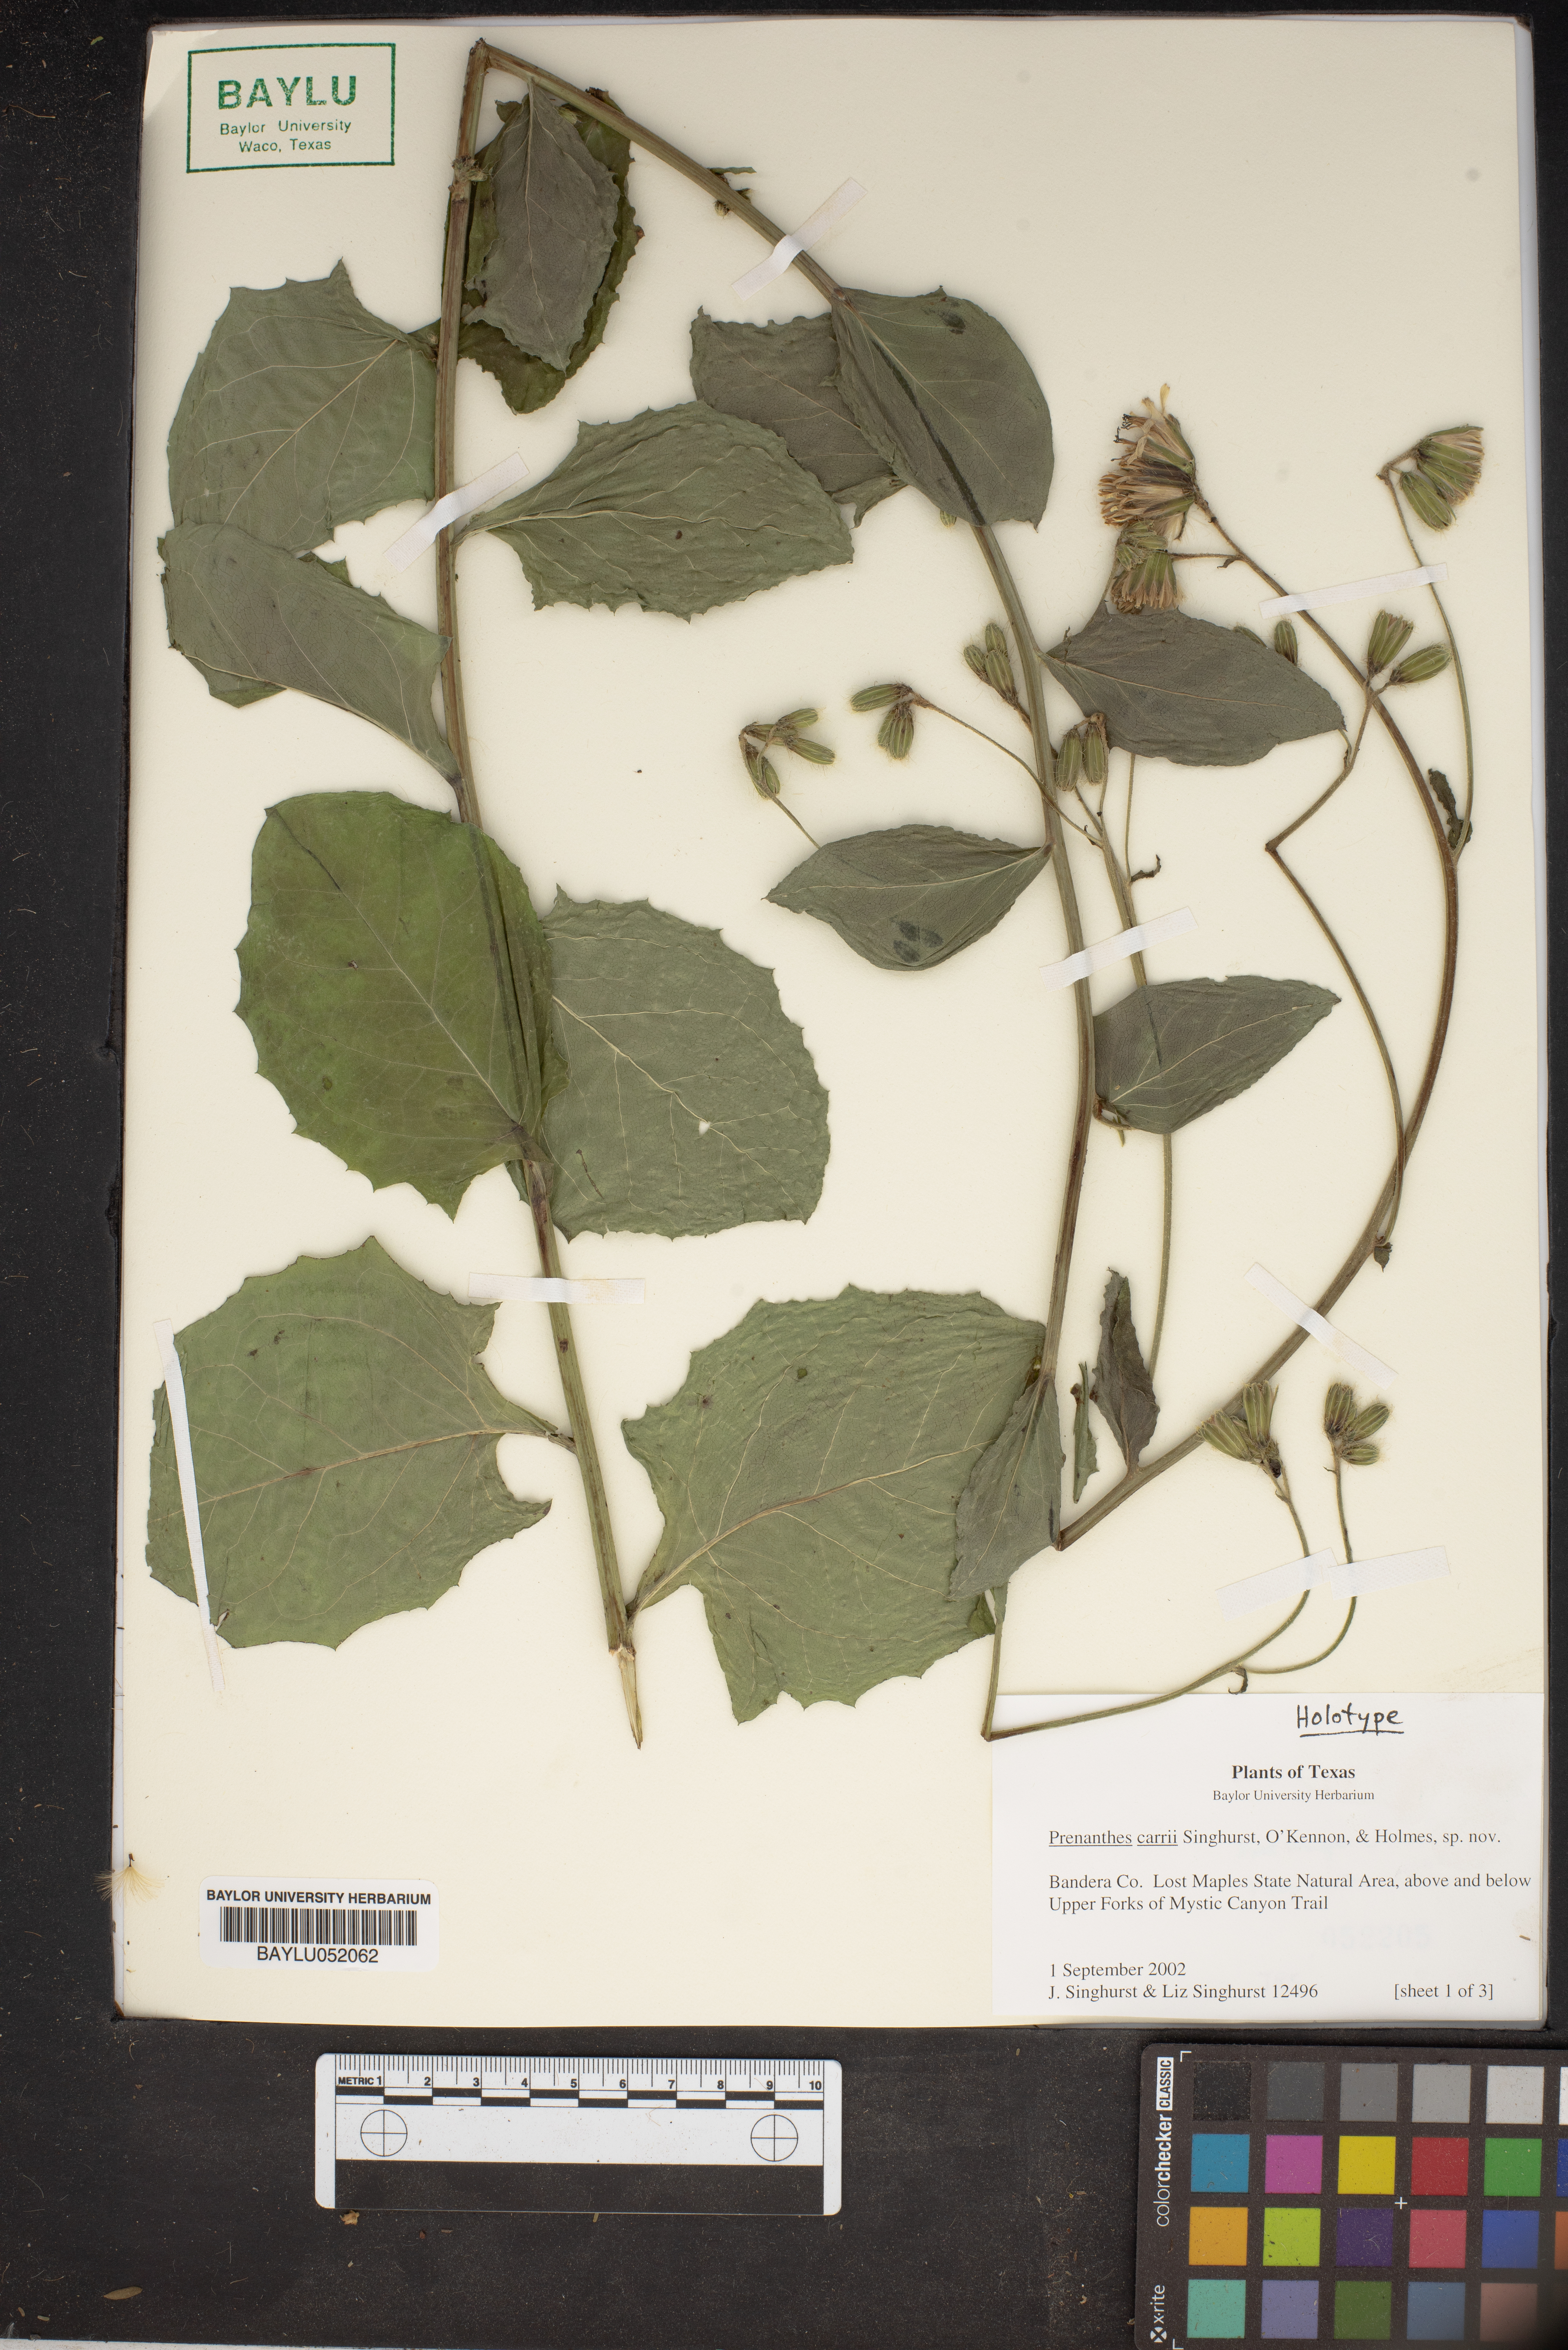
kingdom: Plantae
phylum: Tracheophyta
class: Magnoliopsida
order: Asterales
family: Asteraceae
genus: Nabalus
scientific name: Nabalus carrii
